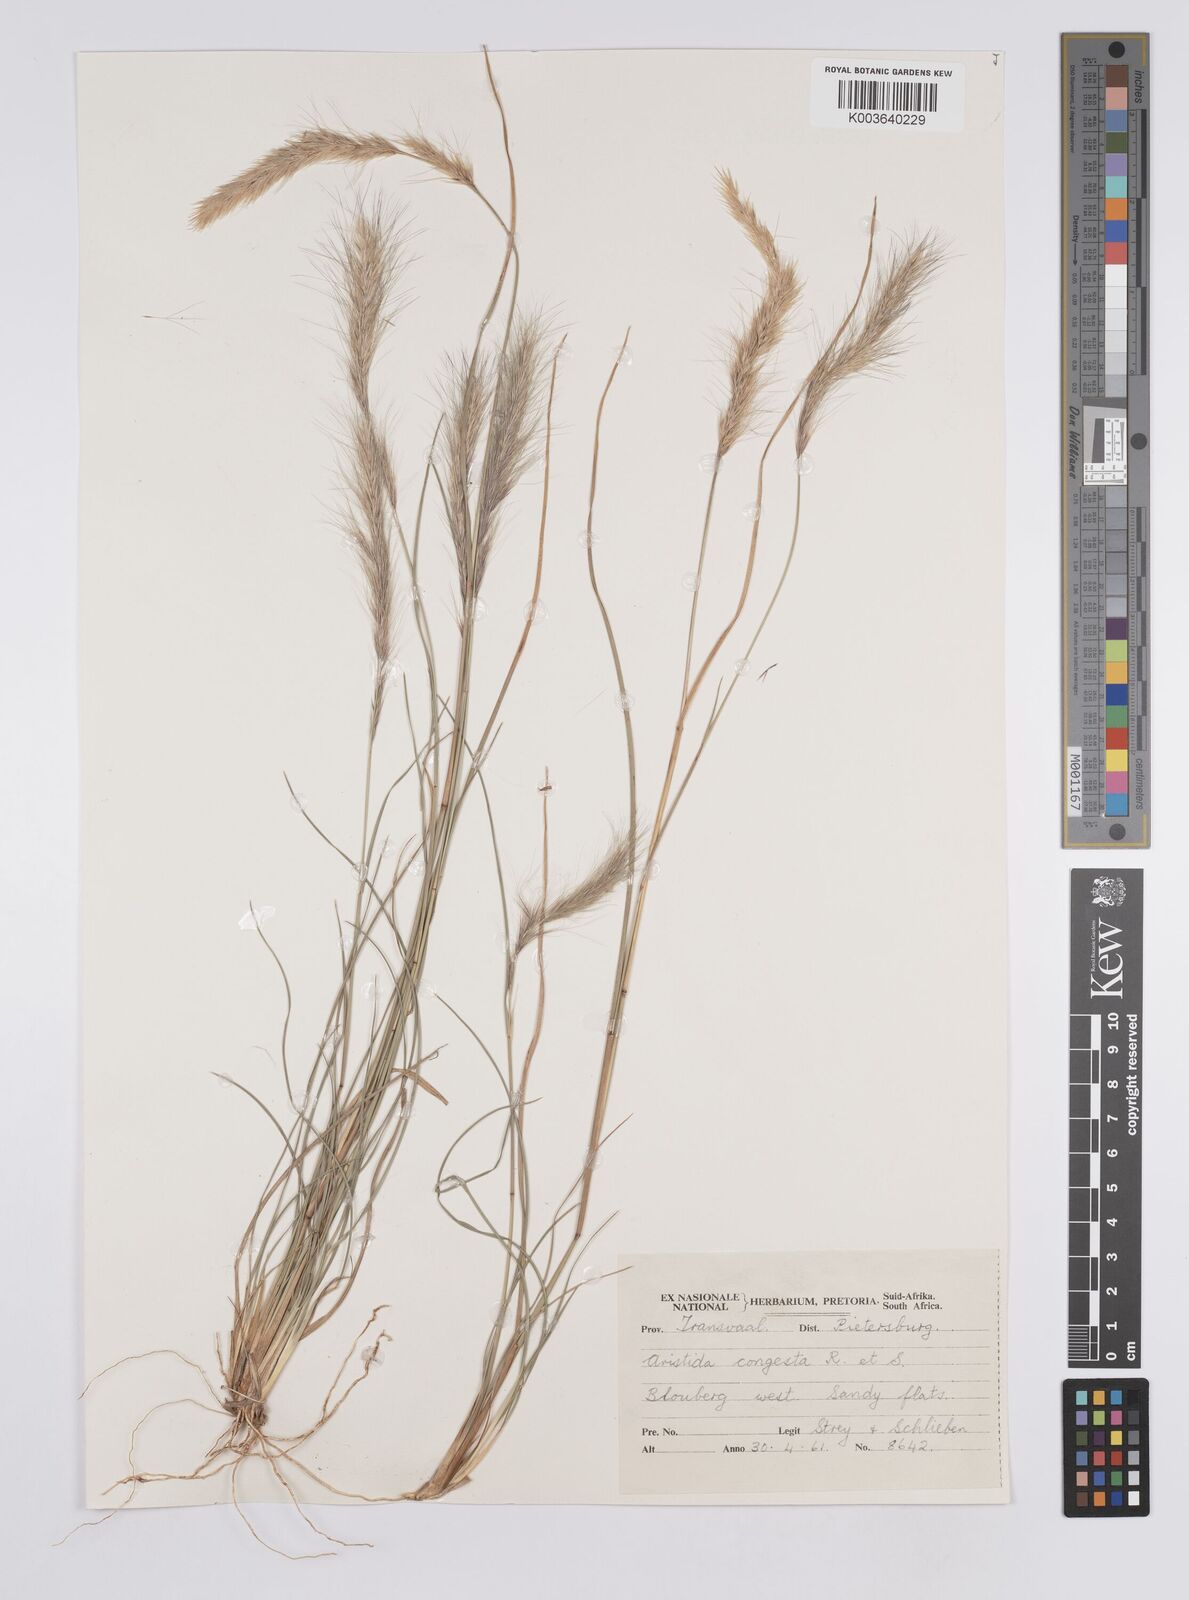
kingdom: Plantae
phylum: Tracheophyta
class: Liliopsida
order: Poales
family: Poaceae
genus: Aristida
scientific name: Aristida congesta
